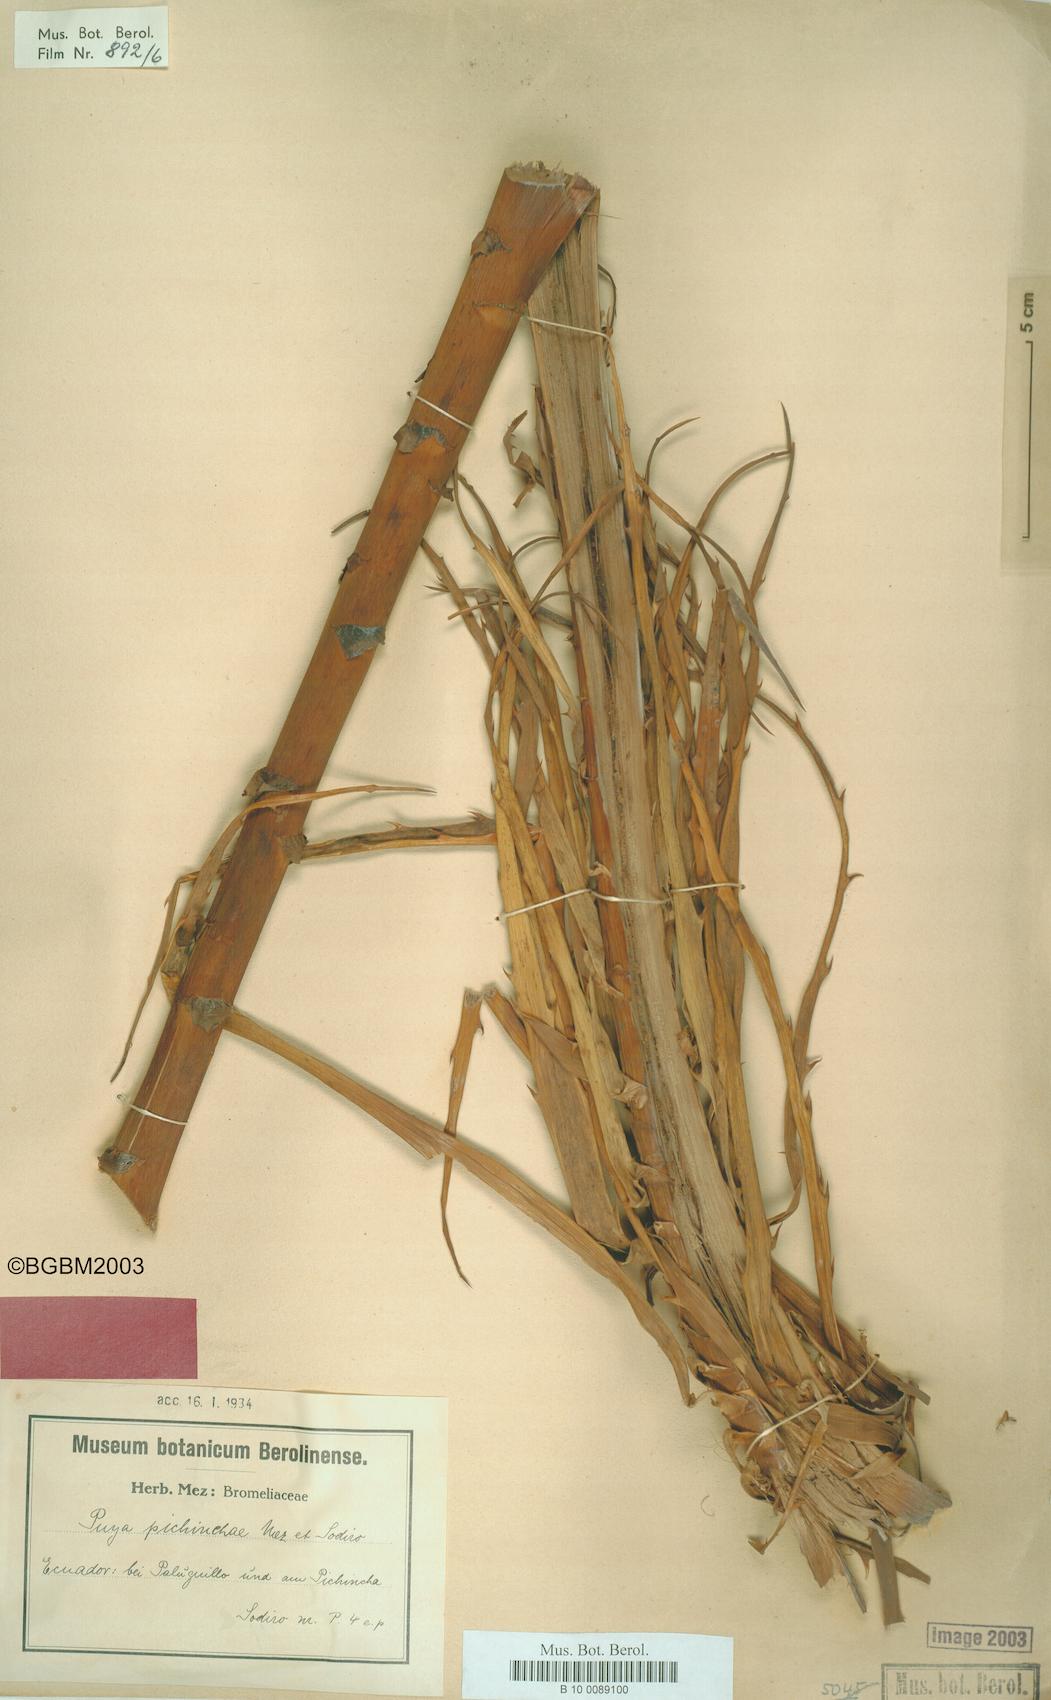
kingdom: Plantae
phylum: Tracheophyta
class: Liliopsida
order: Poales
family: Bromeliaceae
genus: Puya
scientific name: Puya pichinchae
